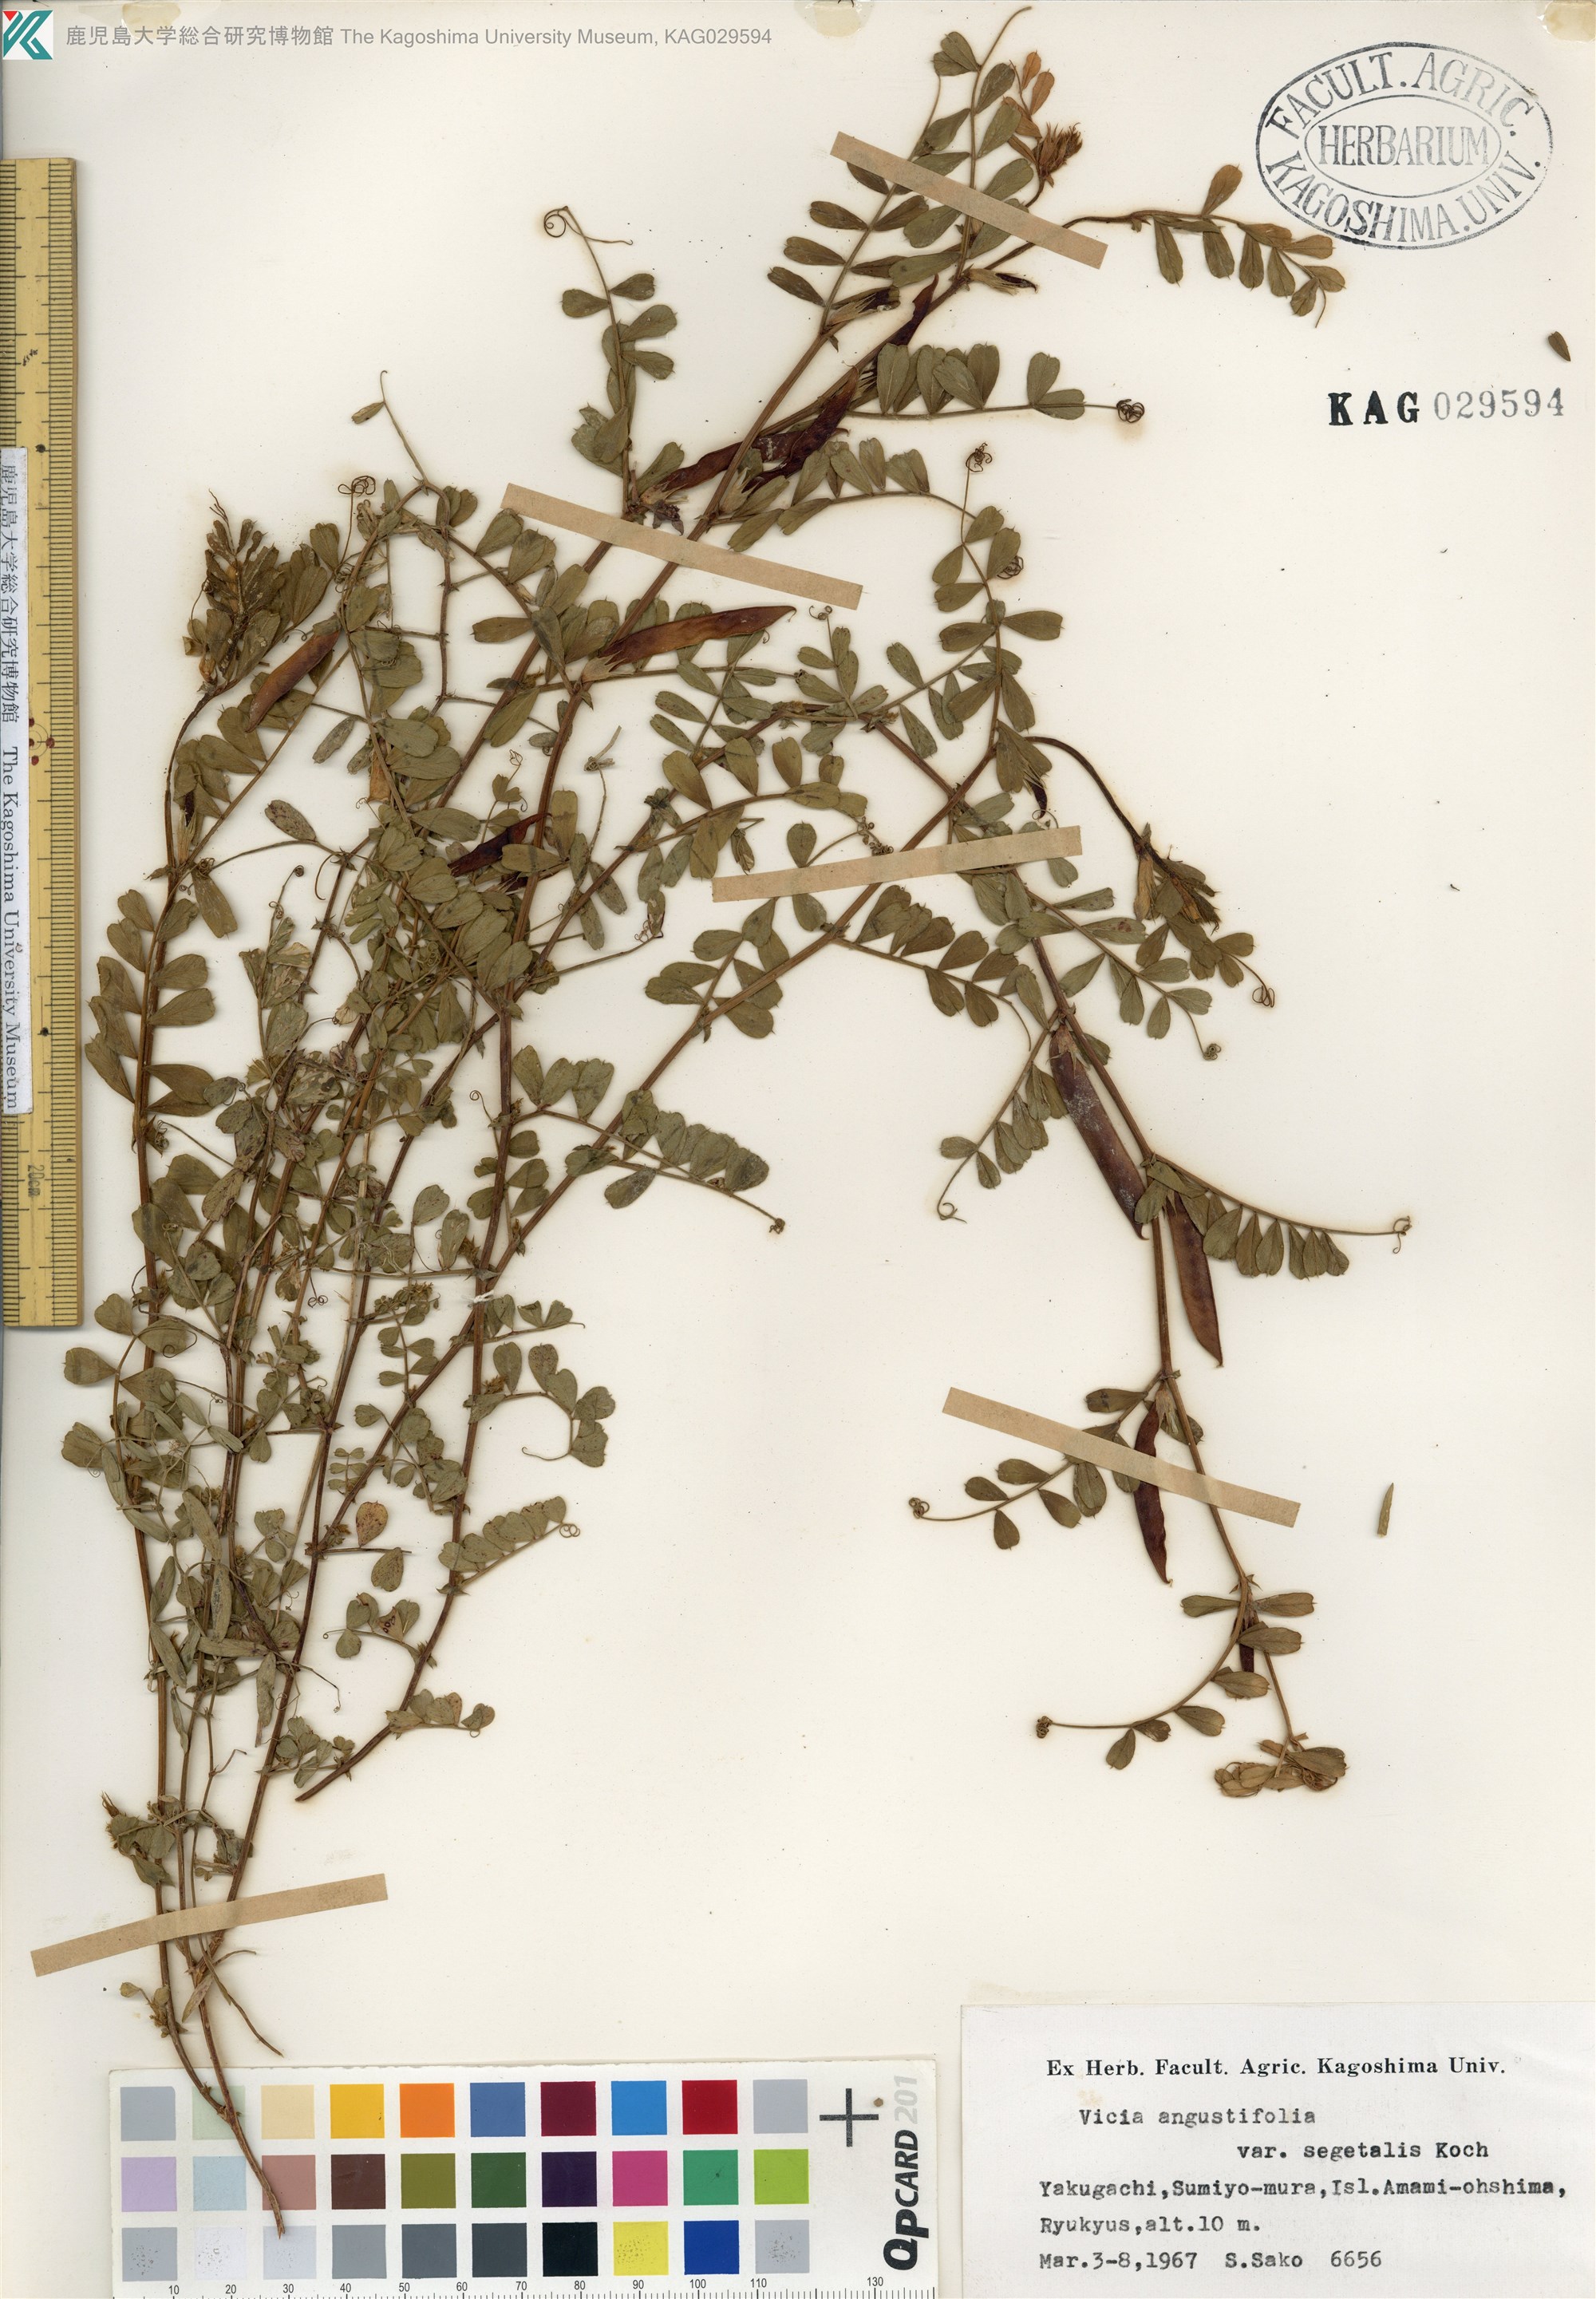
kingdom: Plantae
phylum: Tracheophyta
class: Magnoliopsida
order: Fabales
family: Fabaceae
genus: Vicia
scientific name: Vicia sativa
